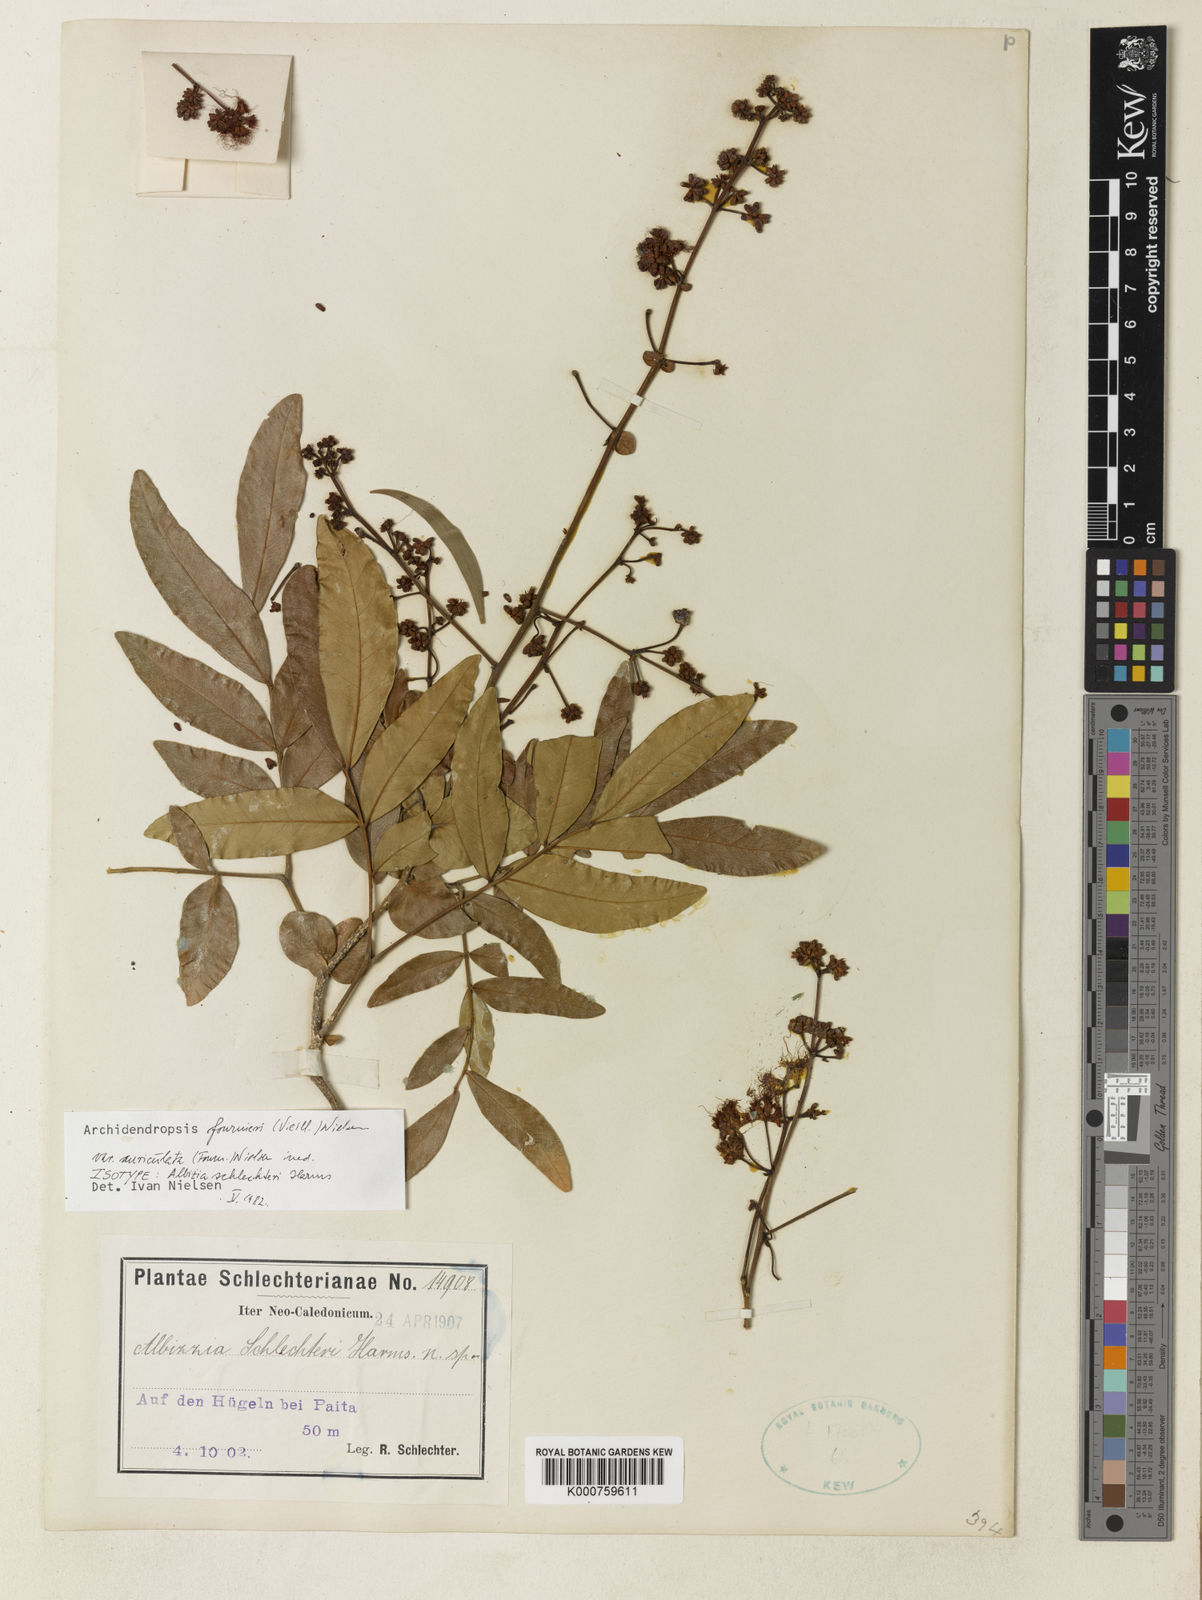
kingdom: Plantae
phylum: Tracheophyta
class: Magnoliopsida
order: Fabales
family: Fabaceae
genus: Archidendropsis
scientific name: Archidendropsis fournieri
